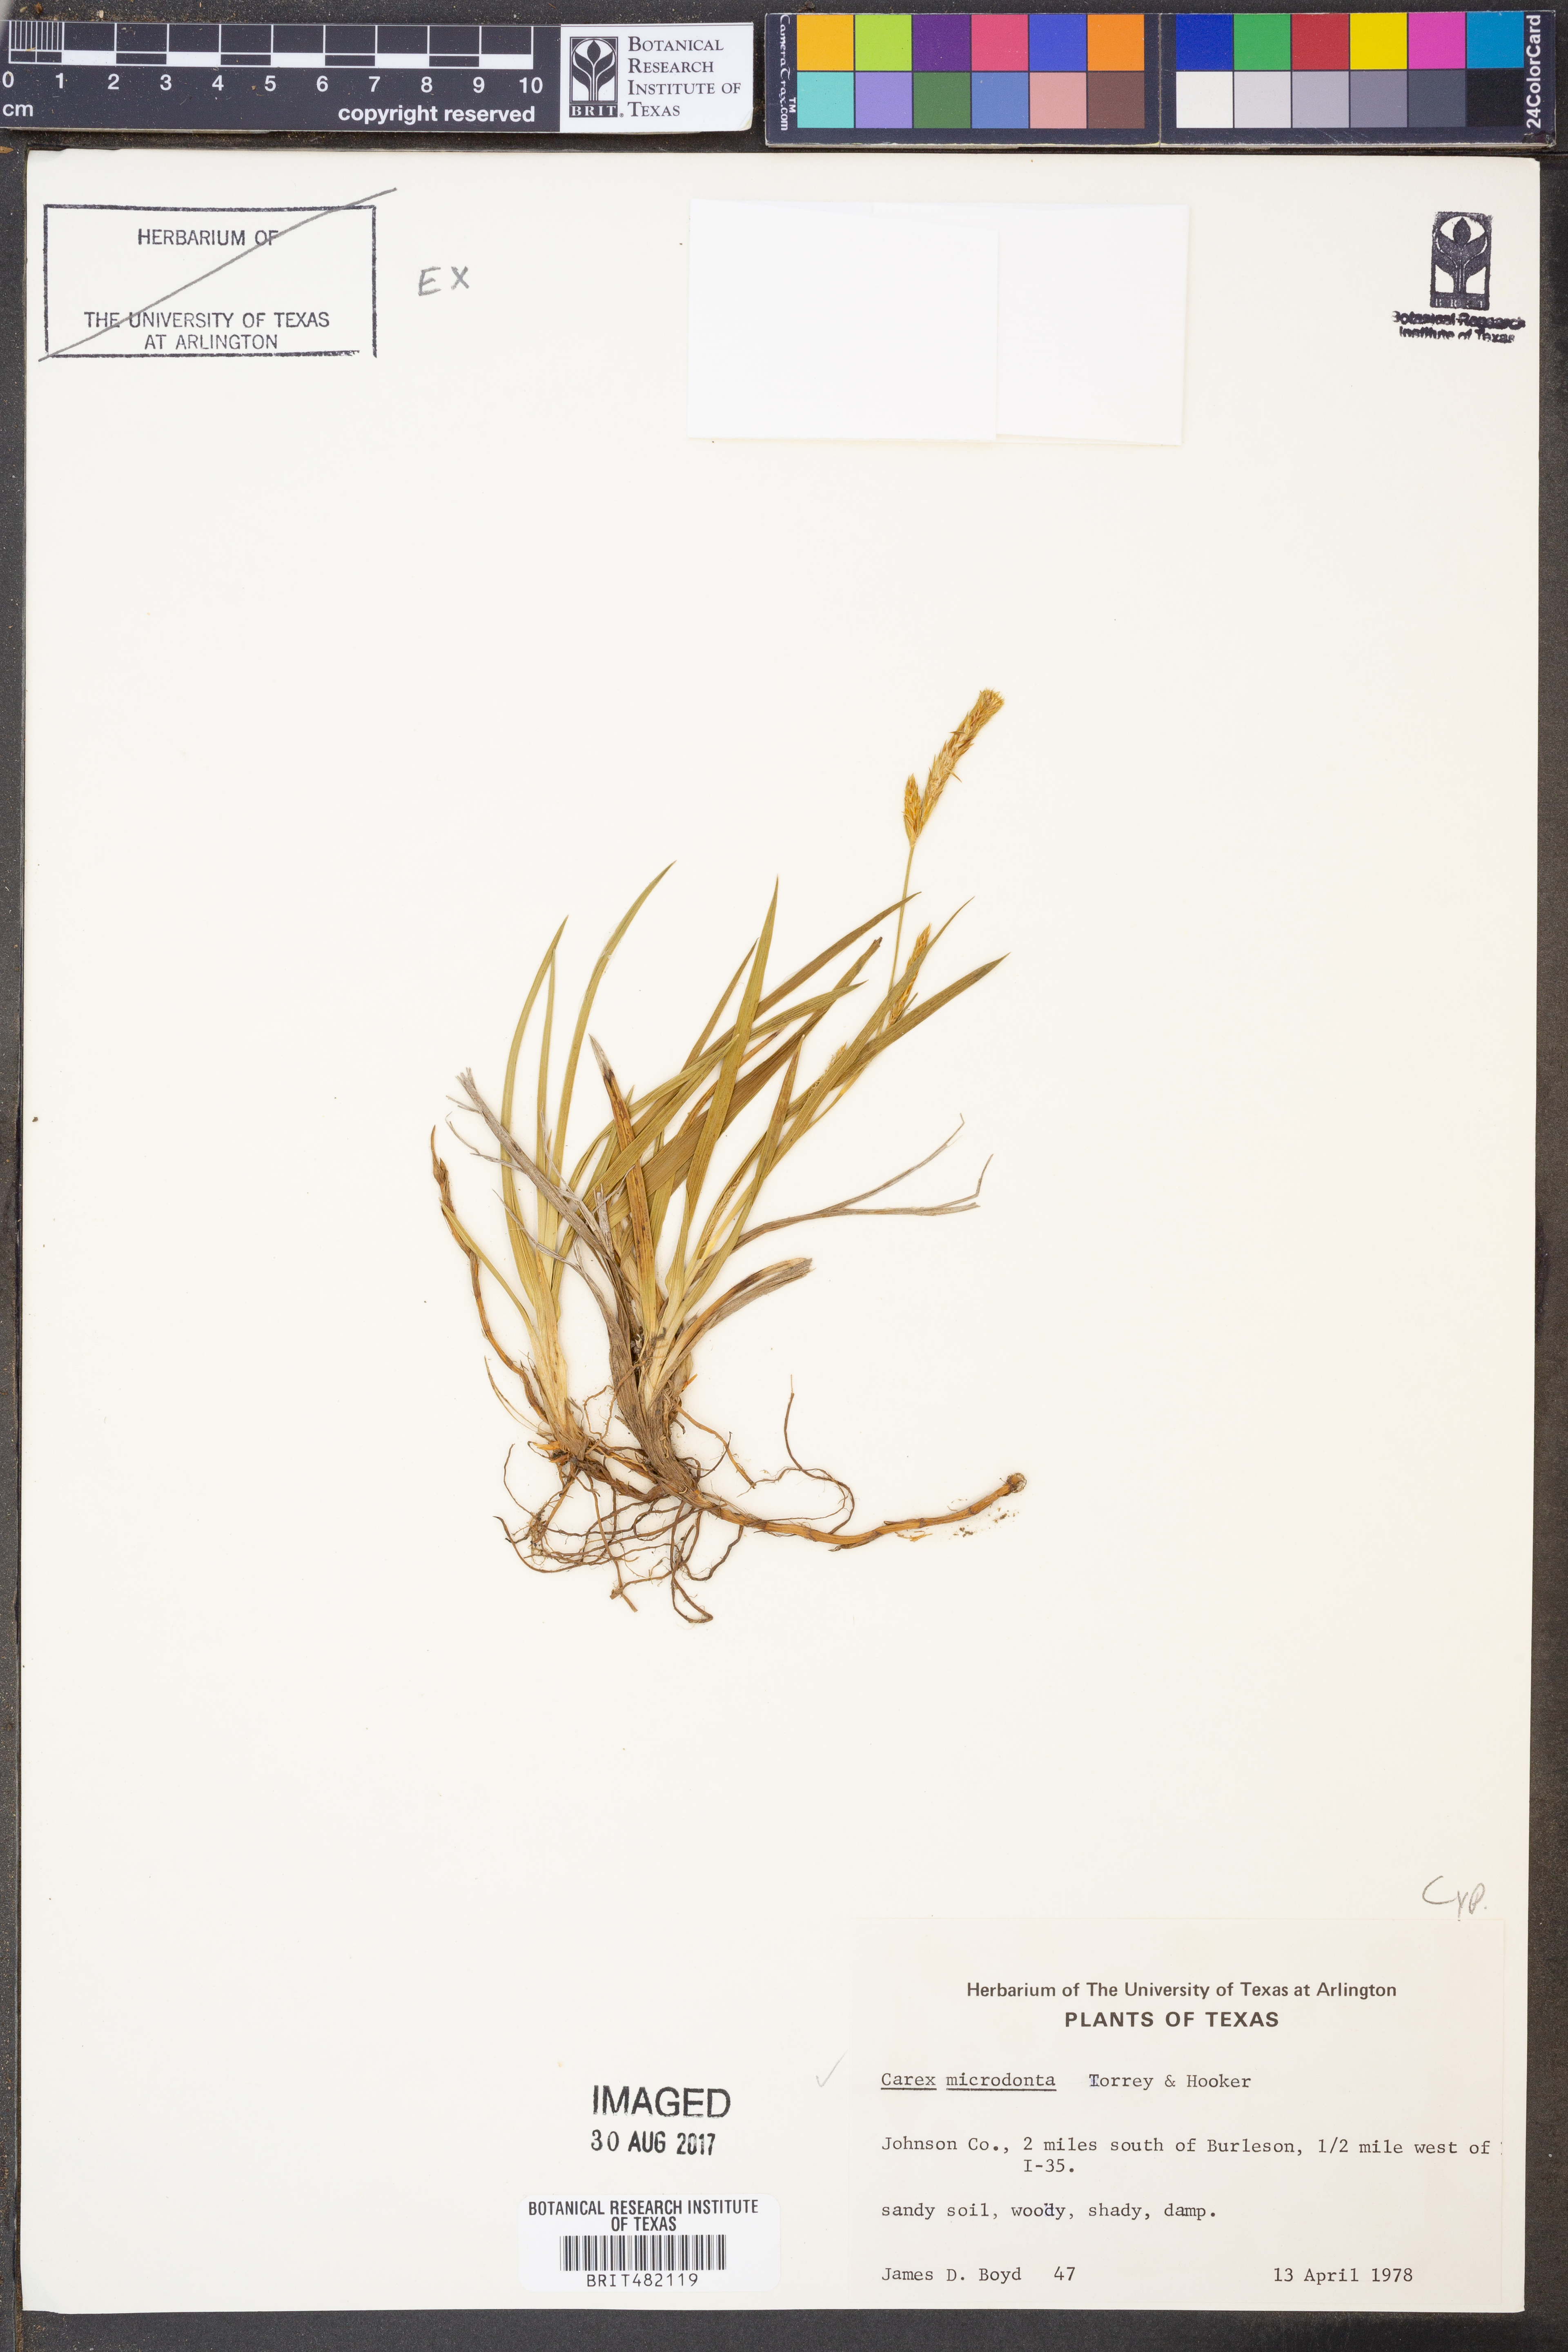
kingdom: Plantae
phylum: Tracheophyta
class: Liliopsida
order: Poales
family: Cyperaceae
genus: Carex
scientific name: Carex microdonta
